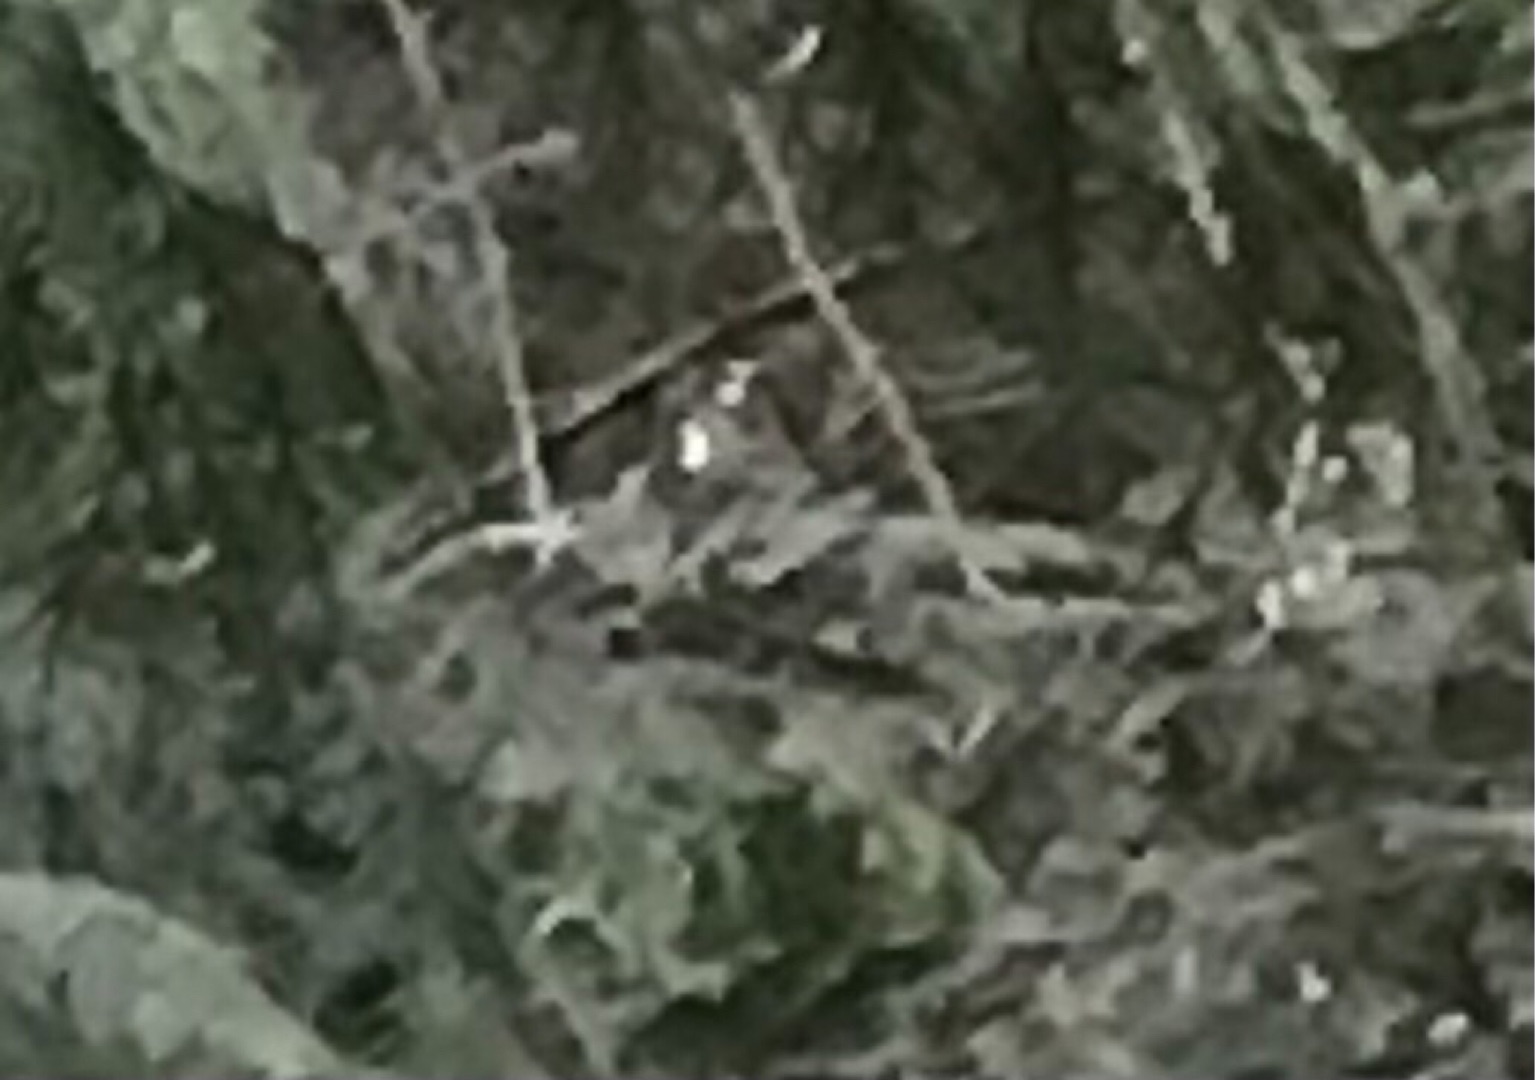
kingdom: Animalia
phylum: Chordata
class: Aves
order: Passeriformes
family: Regulidae
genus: Regulus
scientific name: Regulus regulus
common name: Fuglekonge
